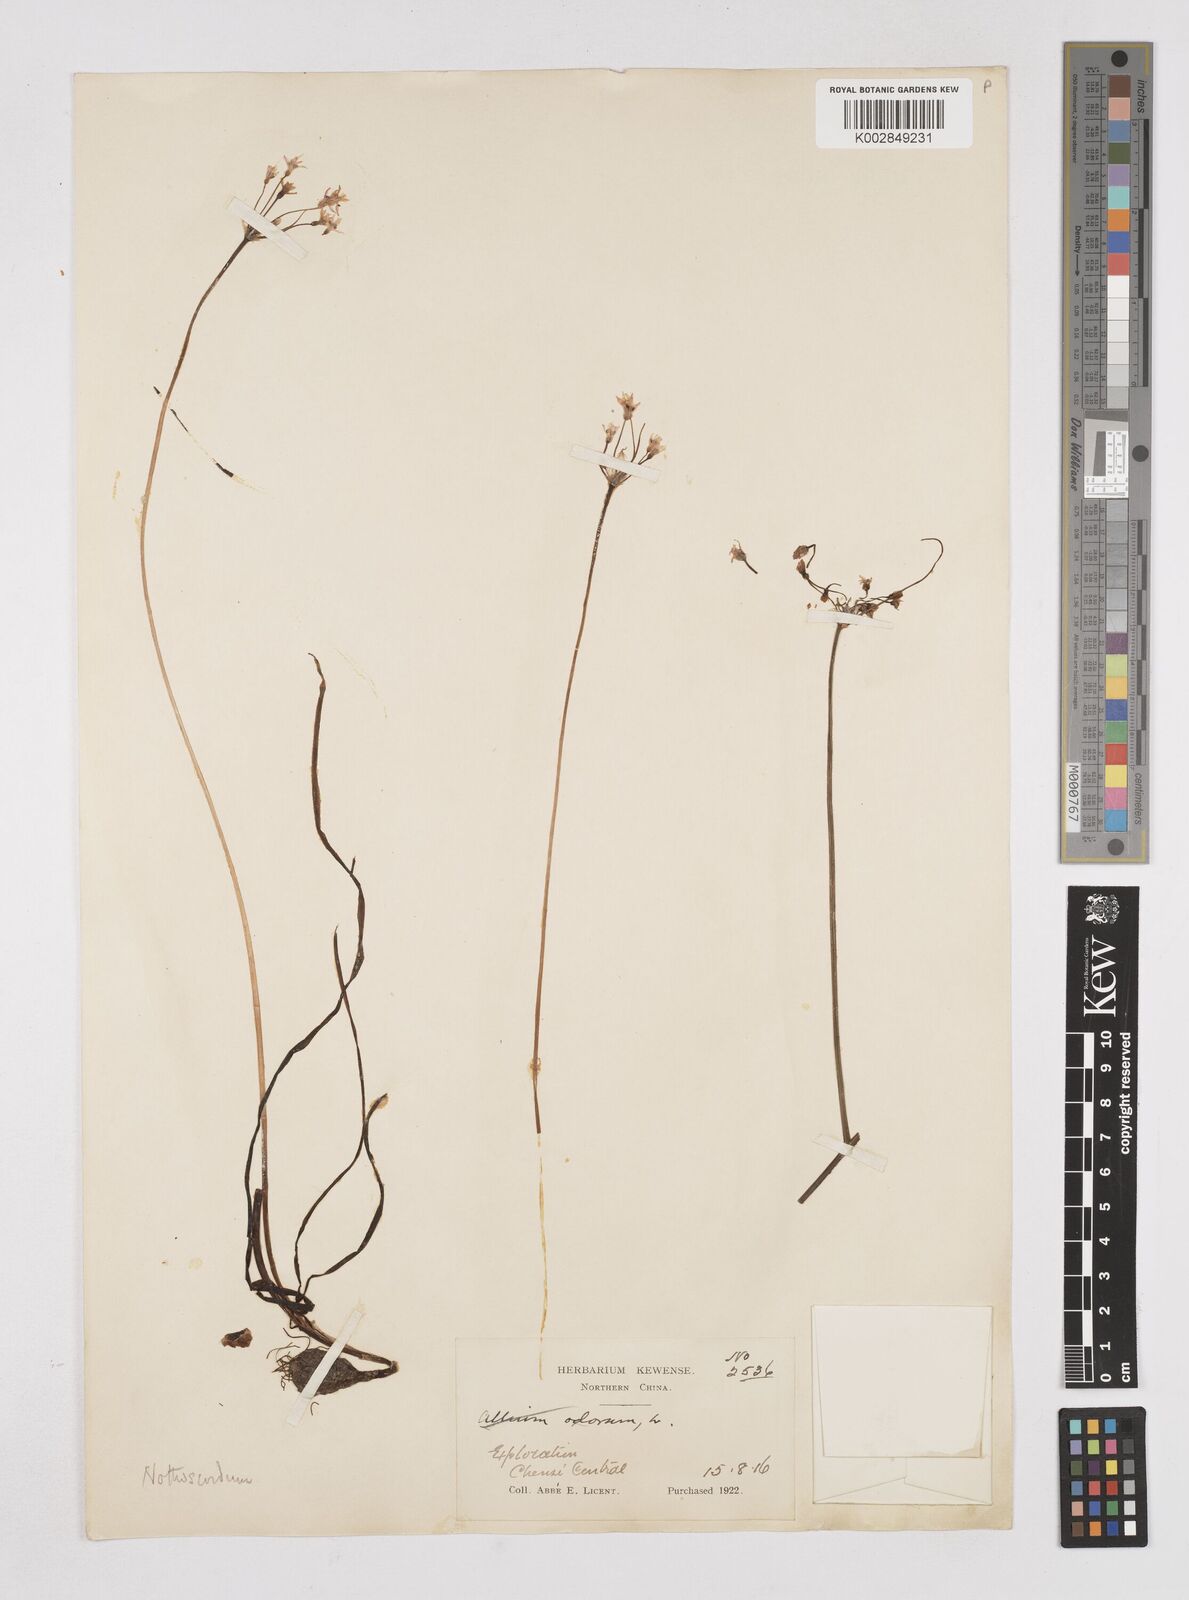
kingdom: Plantae
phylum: Tracheophyta
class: Liliopsida
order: Liliales
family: Liliaceae
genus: Agapanthus
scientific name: Agapanthus
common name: Agapanthus
